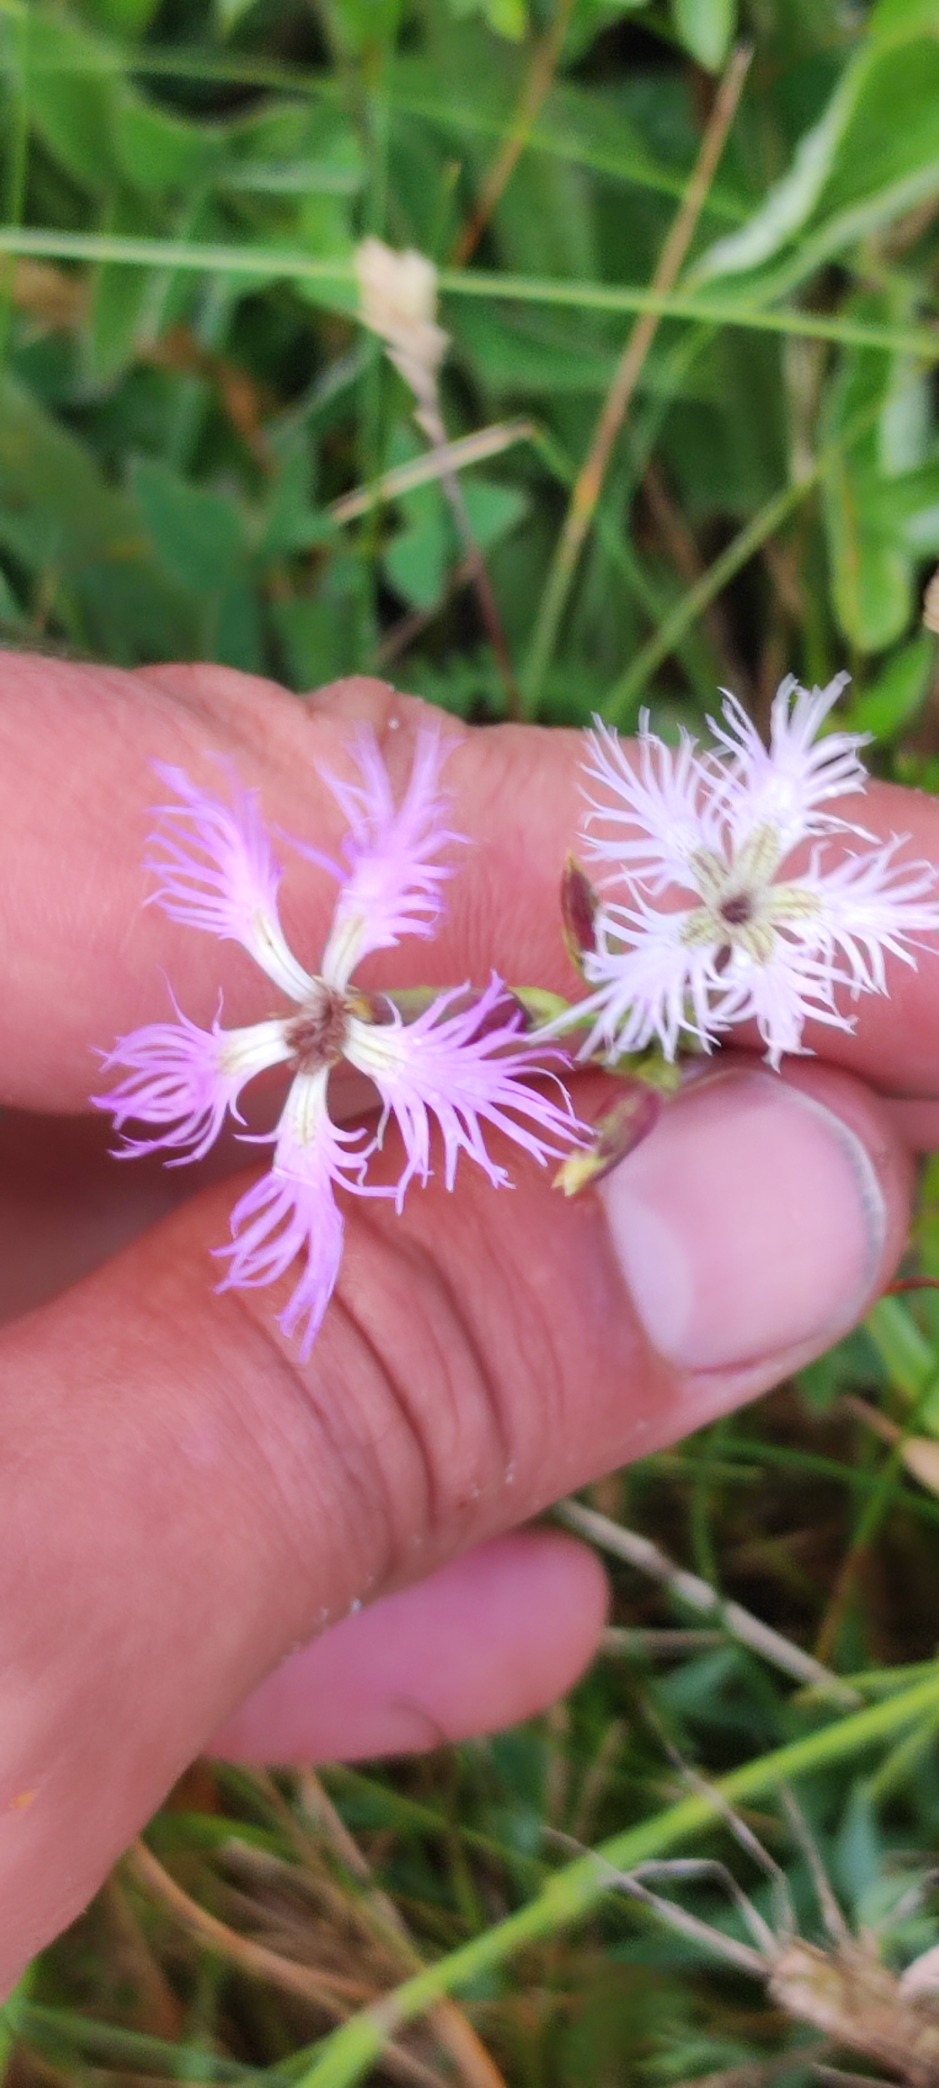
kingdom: Plantae
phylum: Tracheophyta
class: Magnoliopsida
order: Caryophyllales
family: Caryophyllaceae
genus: Dianthus
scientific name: Dianthus superbus
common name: Strand-nellike
